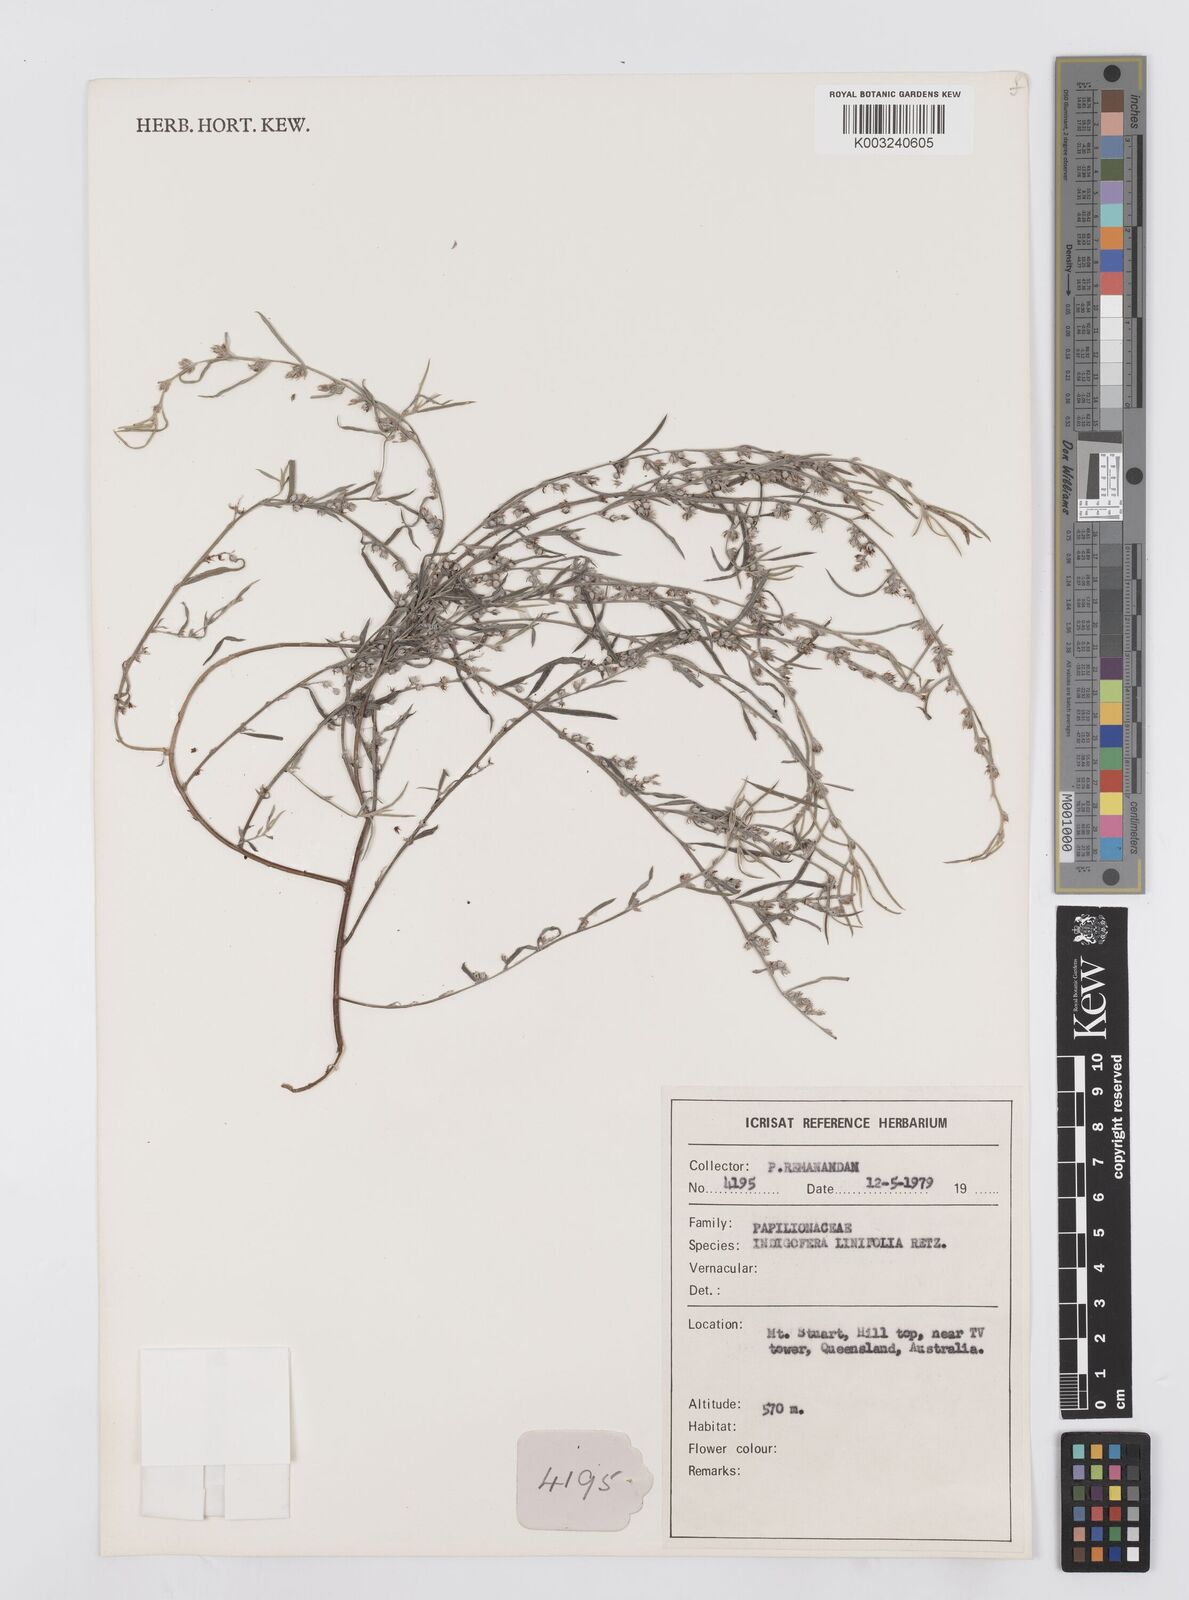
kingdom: Plantae
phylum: Tracheophyta
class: Magnoliopsida
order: Fabales
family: Fabaceae
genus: Indigofera
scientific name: Indigofera linifolia
